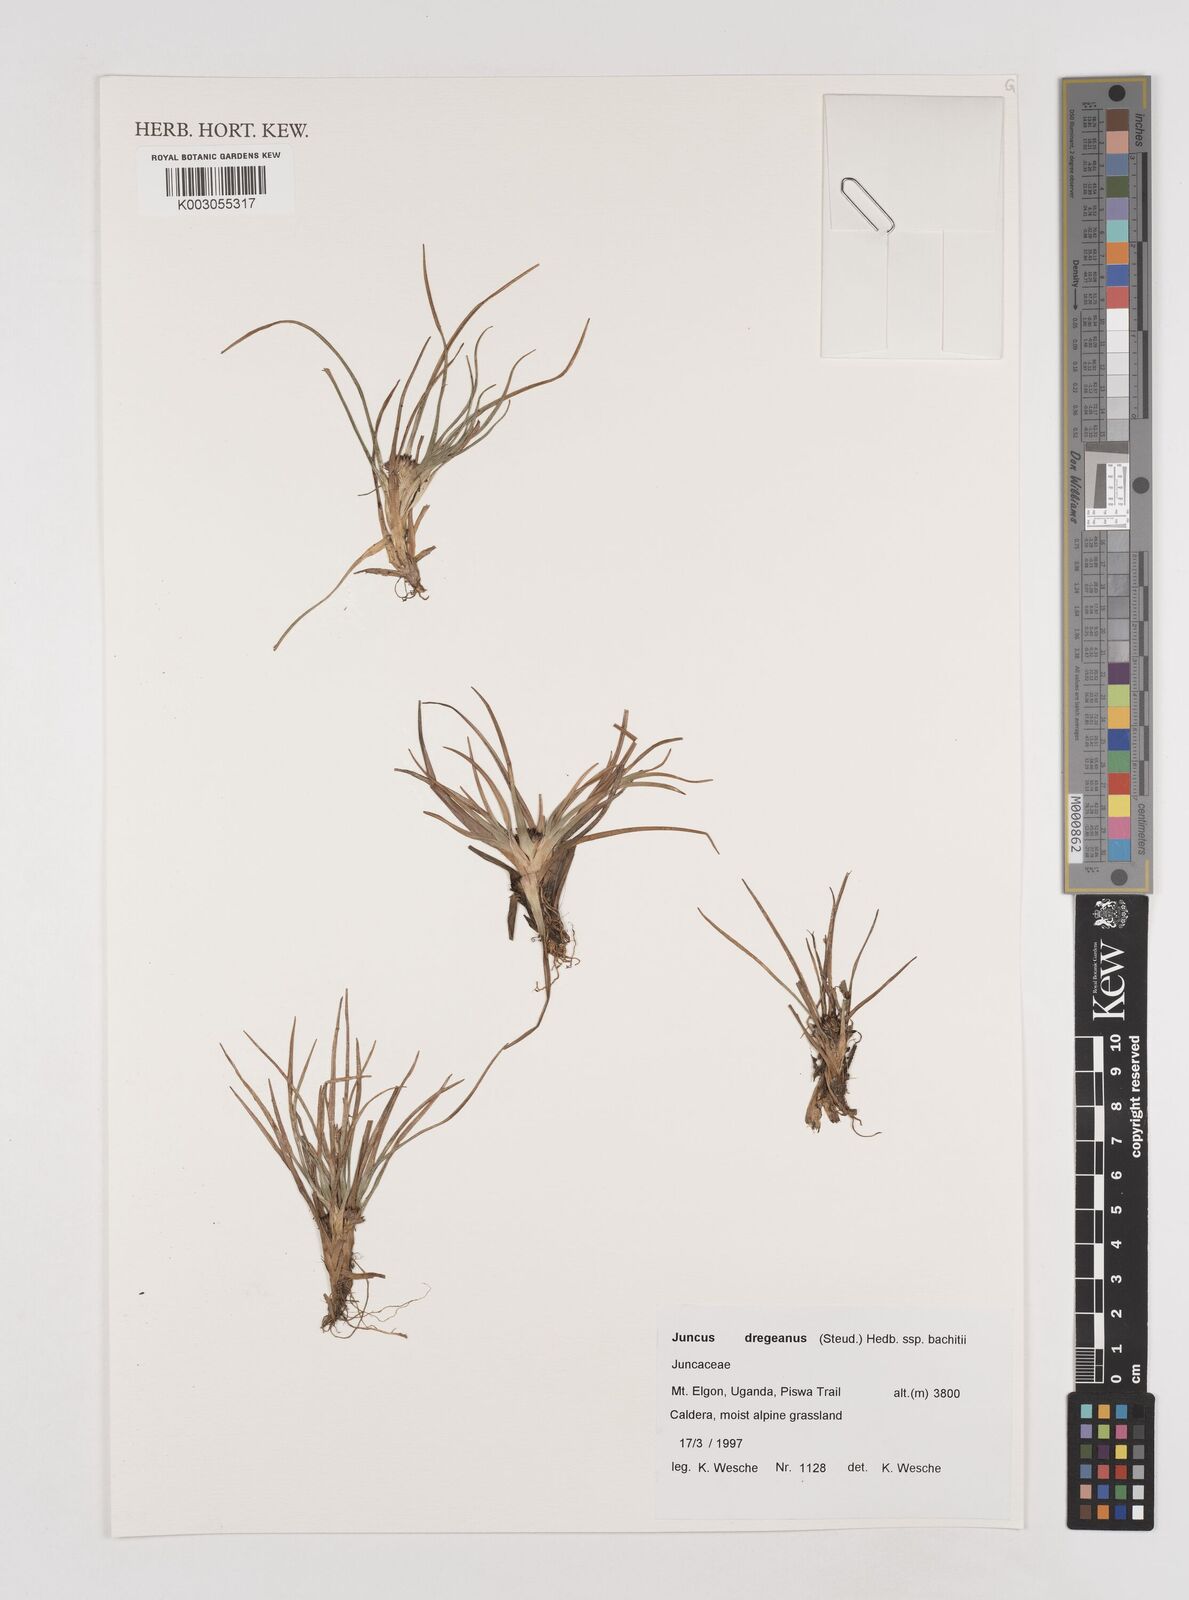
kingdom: Plantae
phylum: Tracheophyta
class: Liliopsida
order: Poales
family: Juncaceae
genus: Juncus
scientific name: Juncus dregeanus
